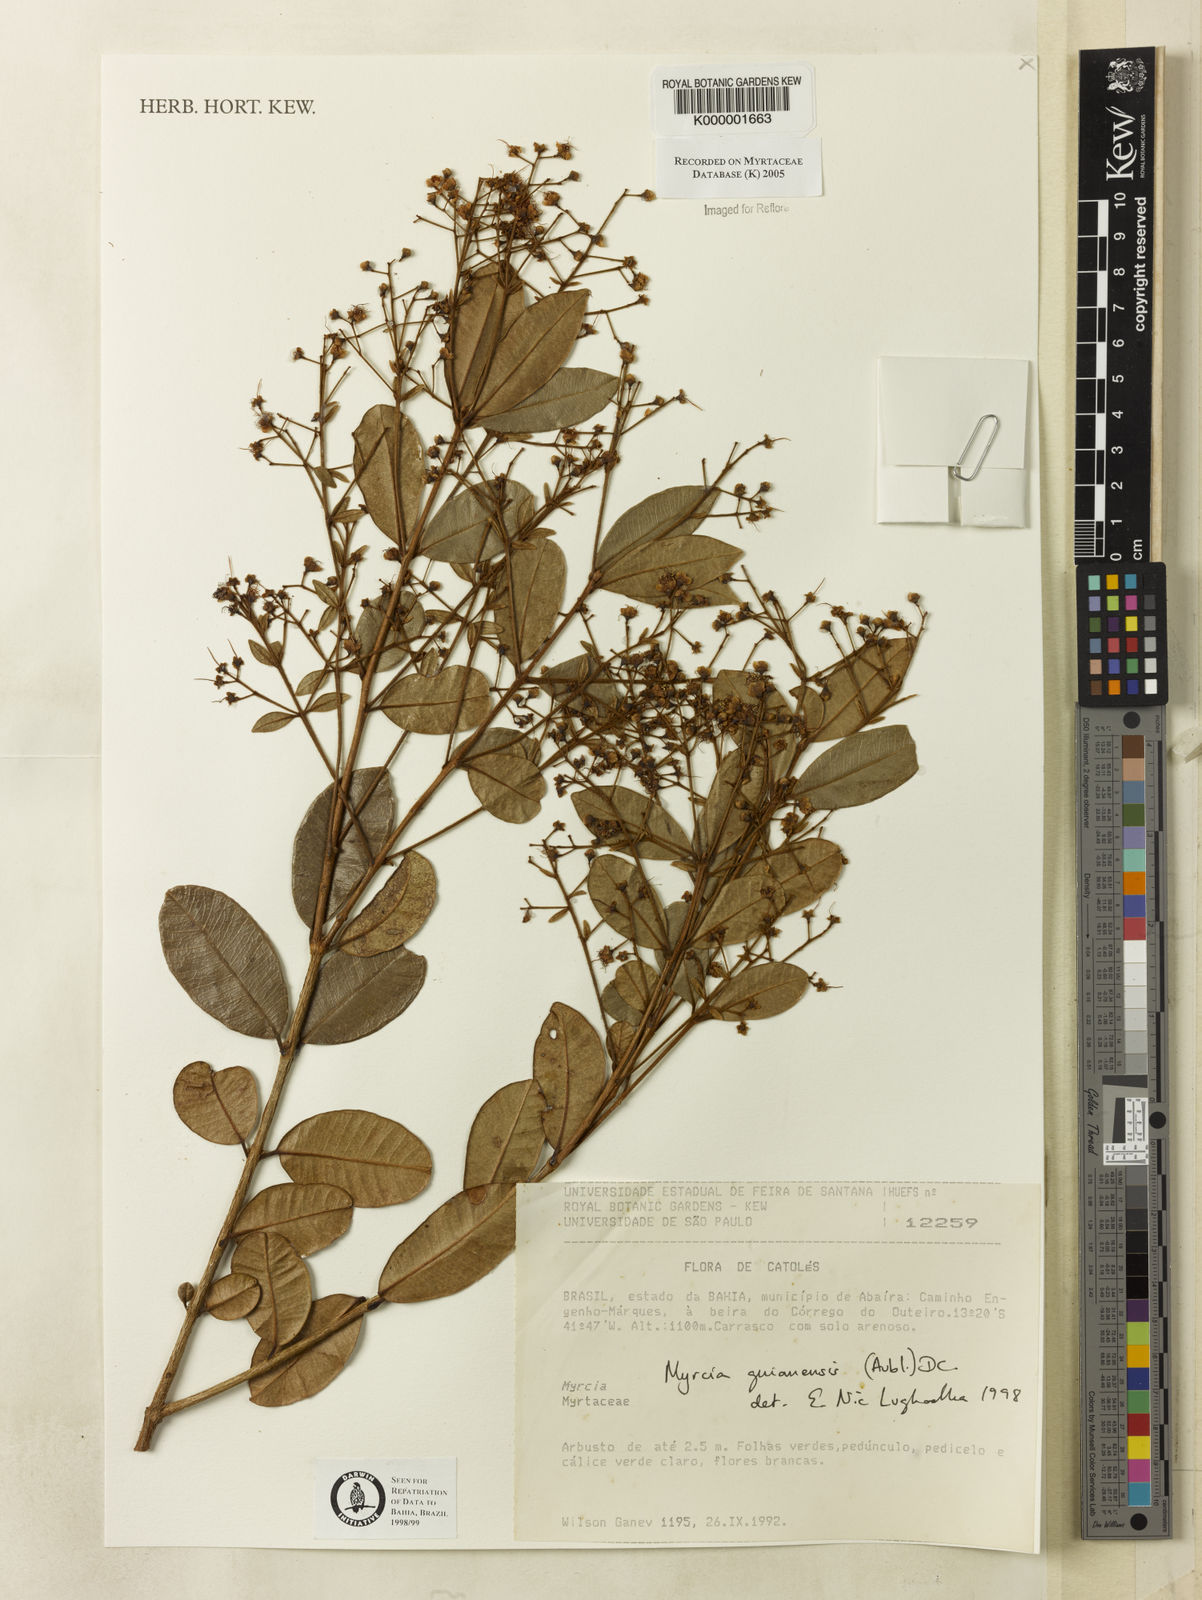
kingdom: Plantae
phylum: Tracheophyta
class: Magnoliopsida
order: Myrtales
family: Myrtaceae
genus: Myrcia
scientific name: Myrcia guianensis
